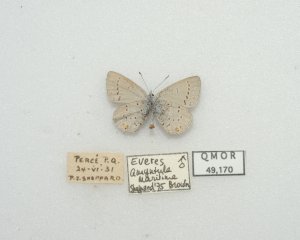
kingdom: Animalia
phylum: Arthropoda
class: Insecta
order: Lepidoptera
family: Lycaenidae
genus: Elkalyce
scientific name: Elkalyce amyntula
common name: Western Tailed-Blue
